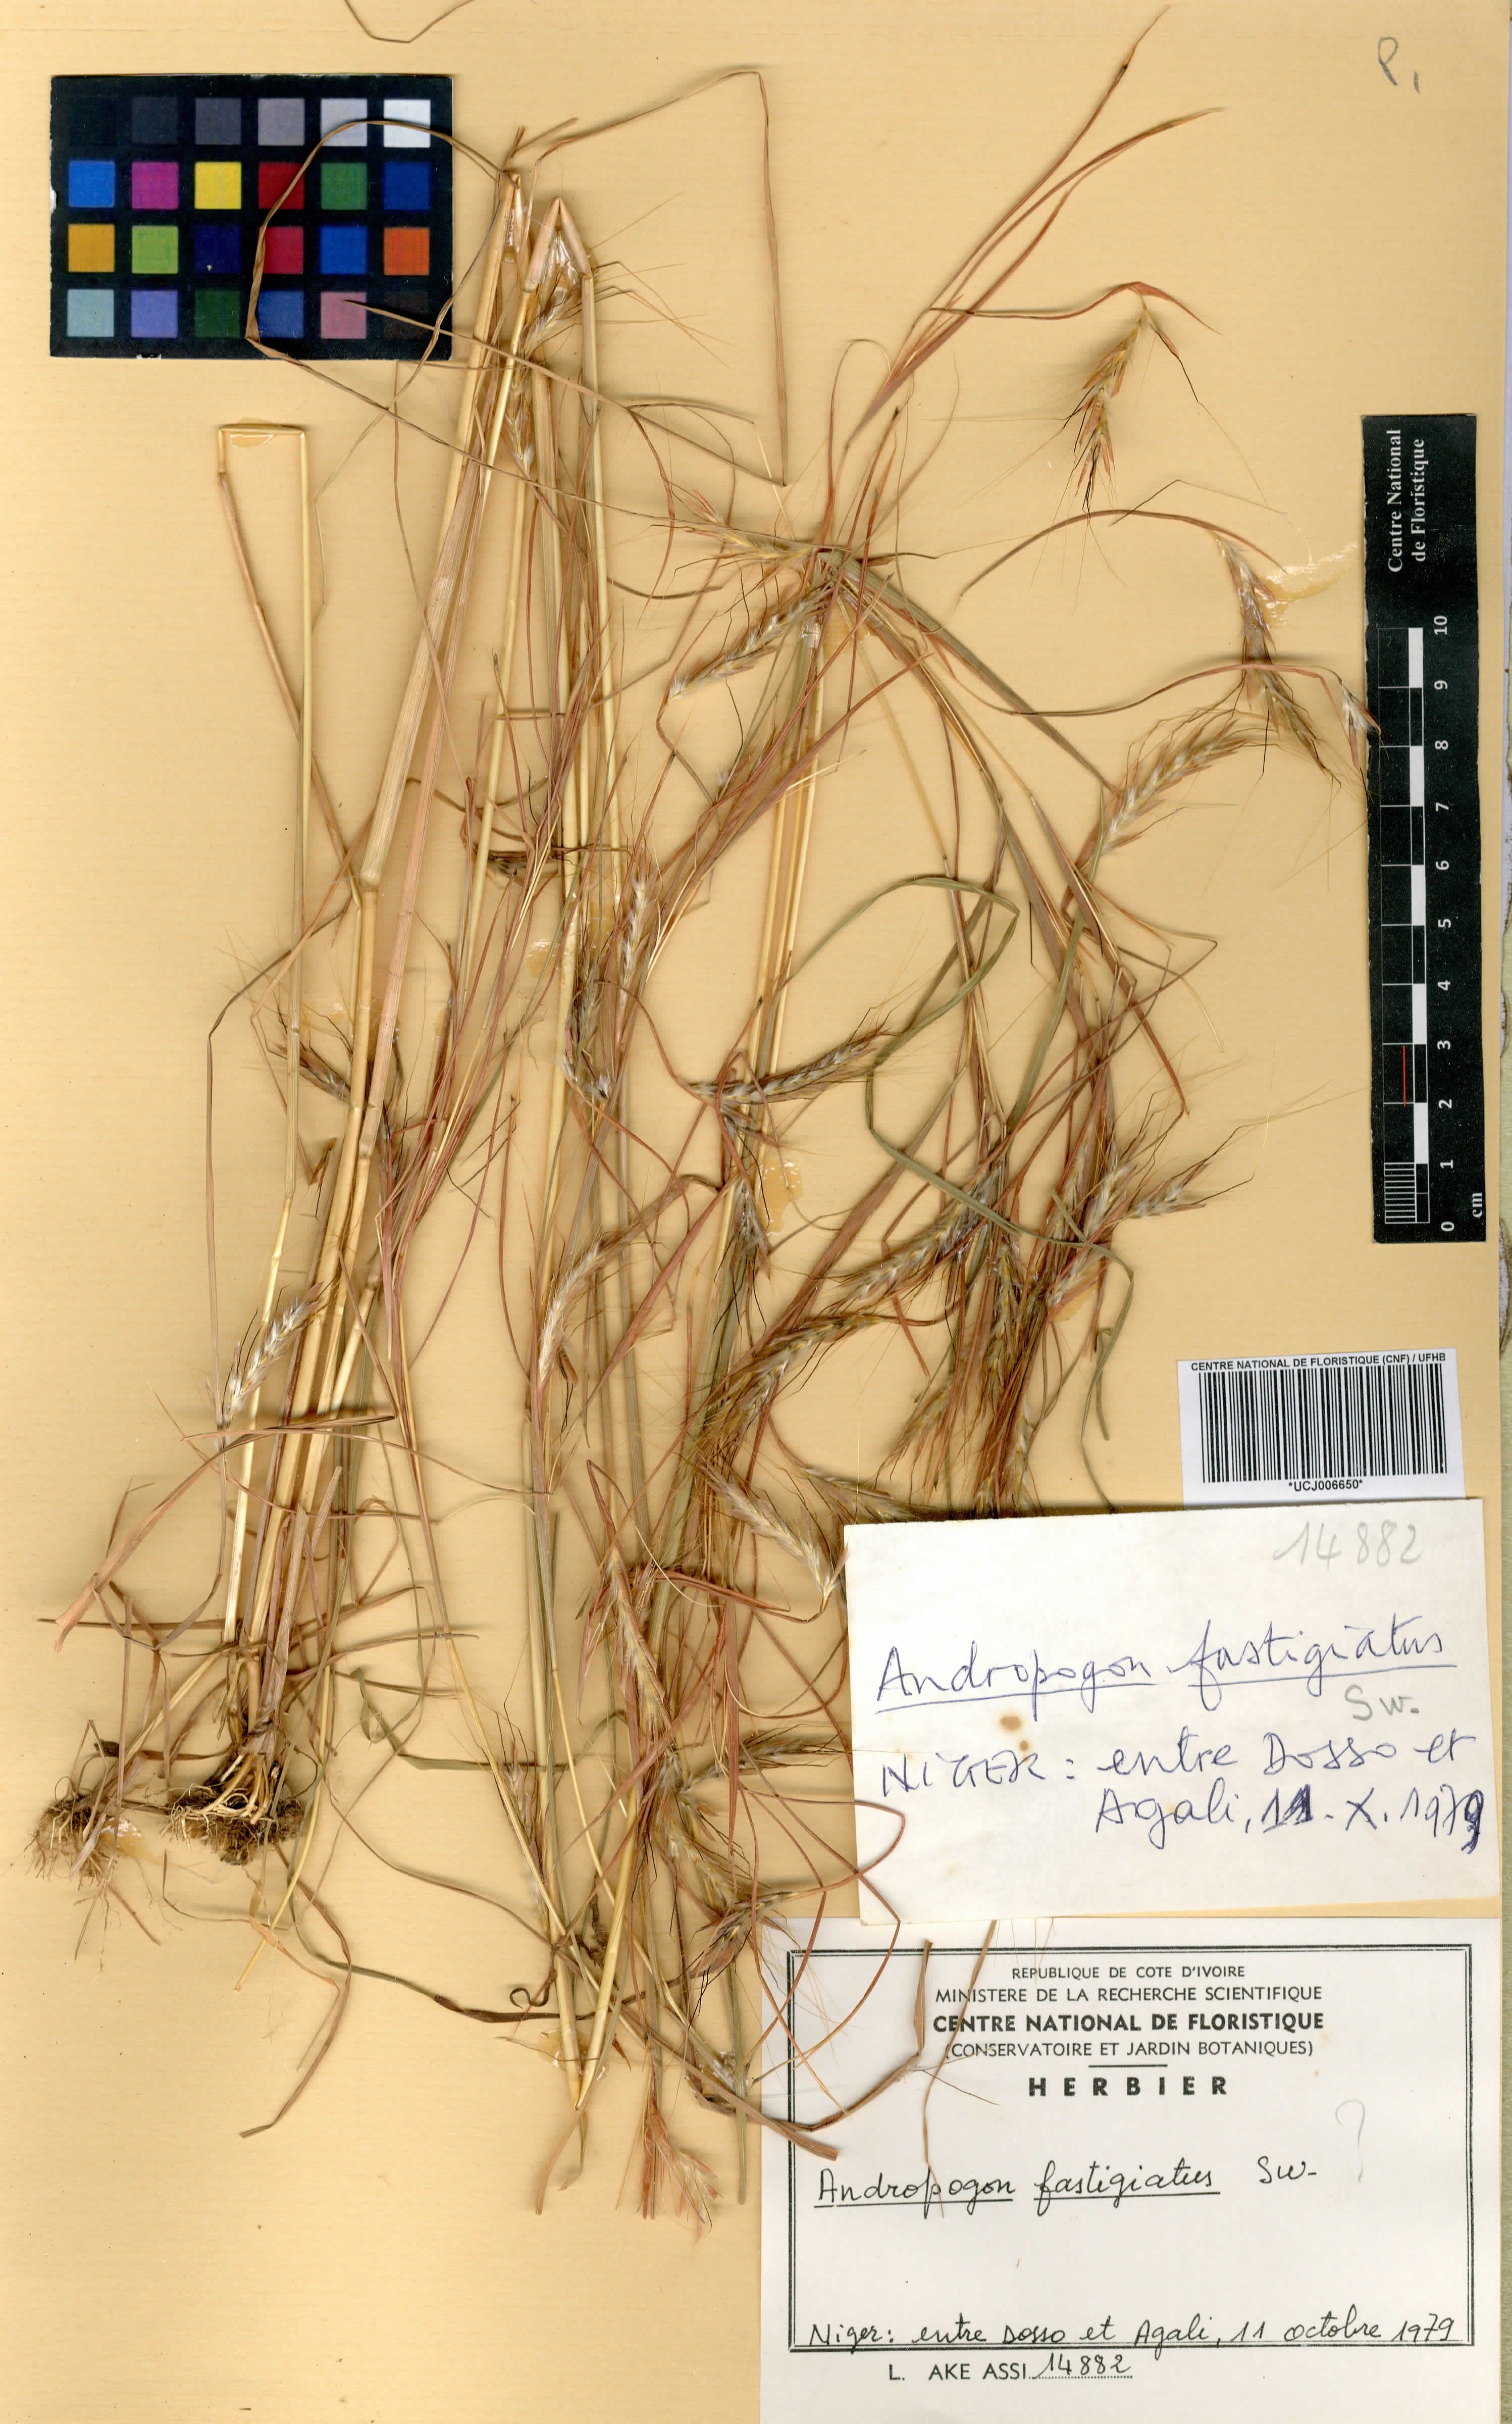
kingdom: Plantae
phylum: Tracheophyta
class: Liliopsida
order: Poales
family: Poaceae
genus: Diectomis
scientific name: Diectomis fastigiata
